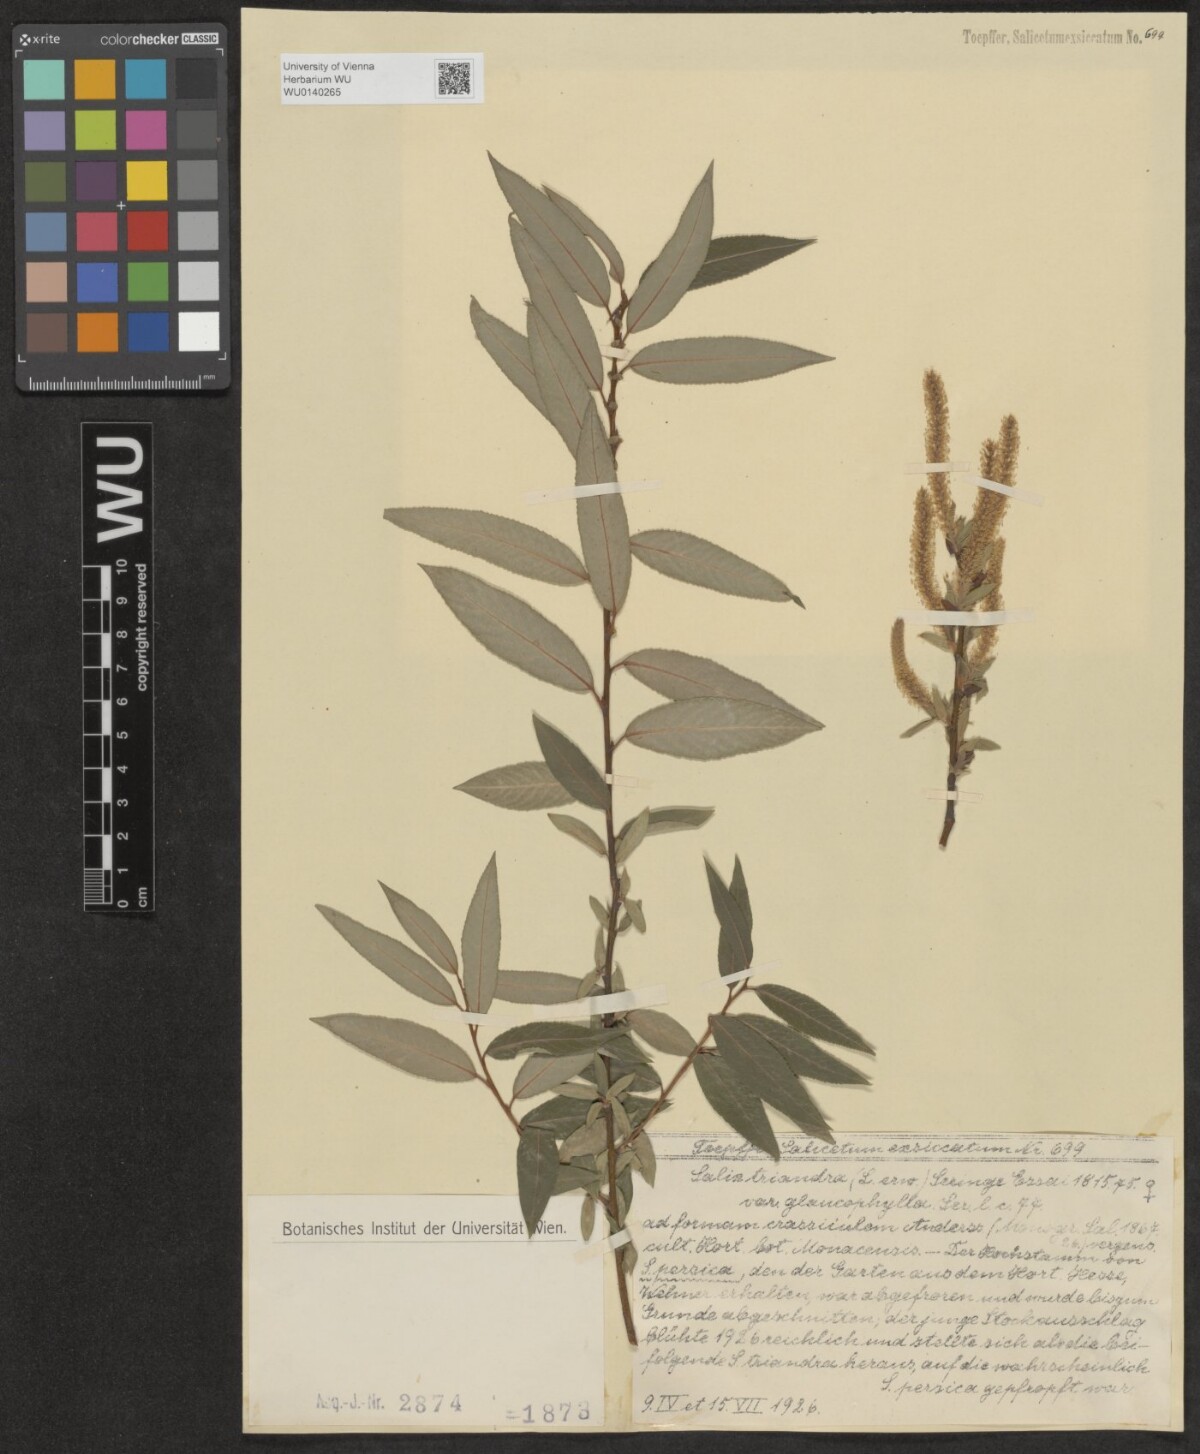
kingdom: Plantae
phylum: Tracheophyta
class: Magnoliopsida
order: Malpighiales
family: Salicaceae
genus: Salix
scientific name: Salix triandra
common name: Almond willow
